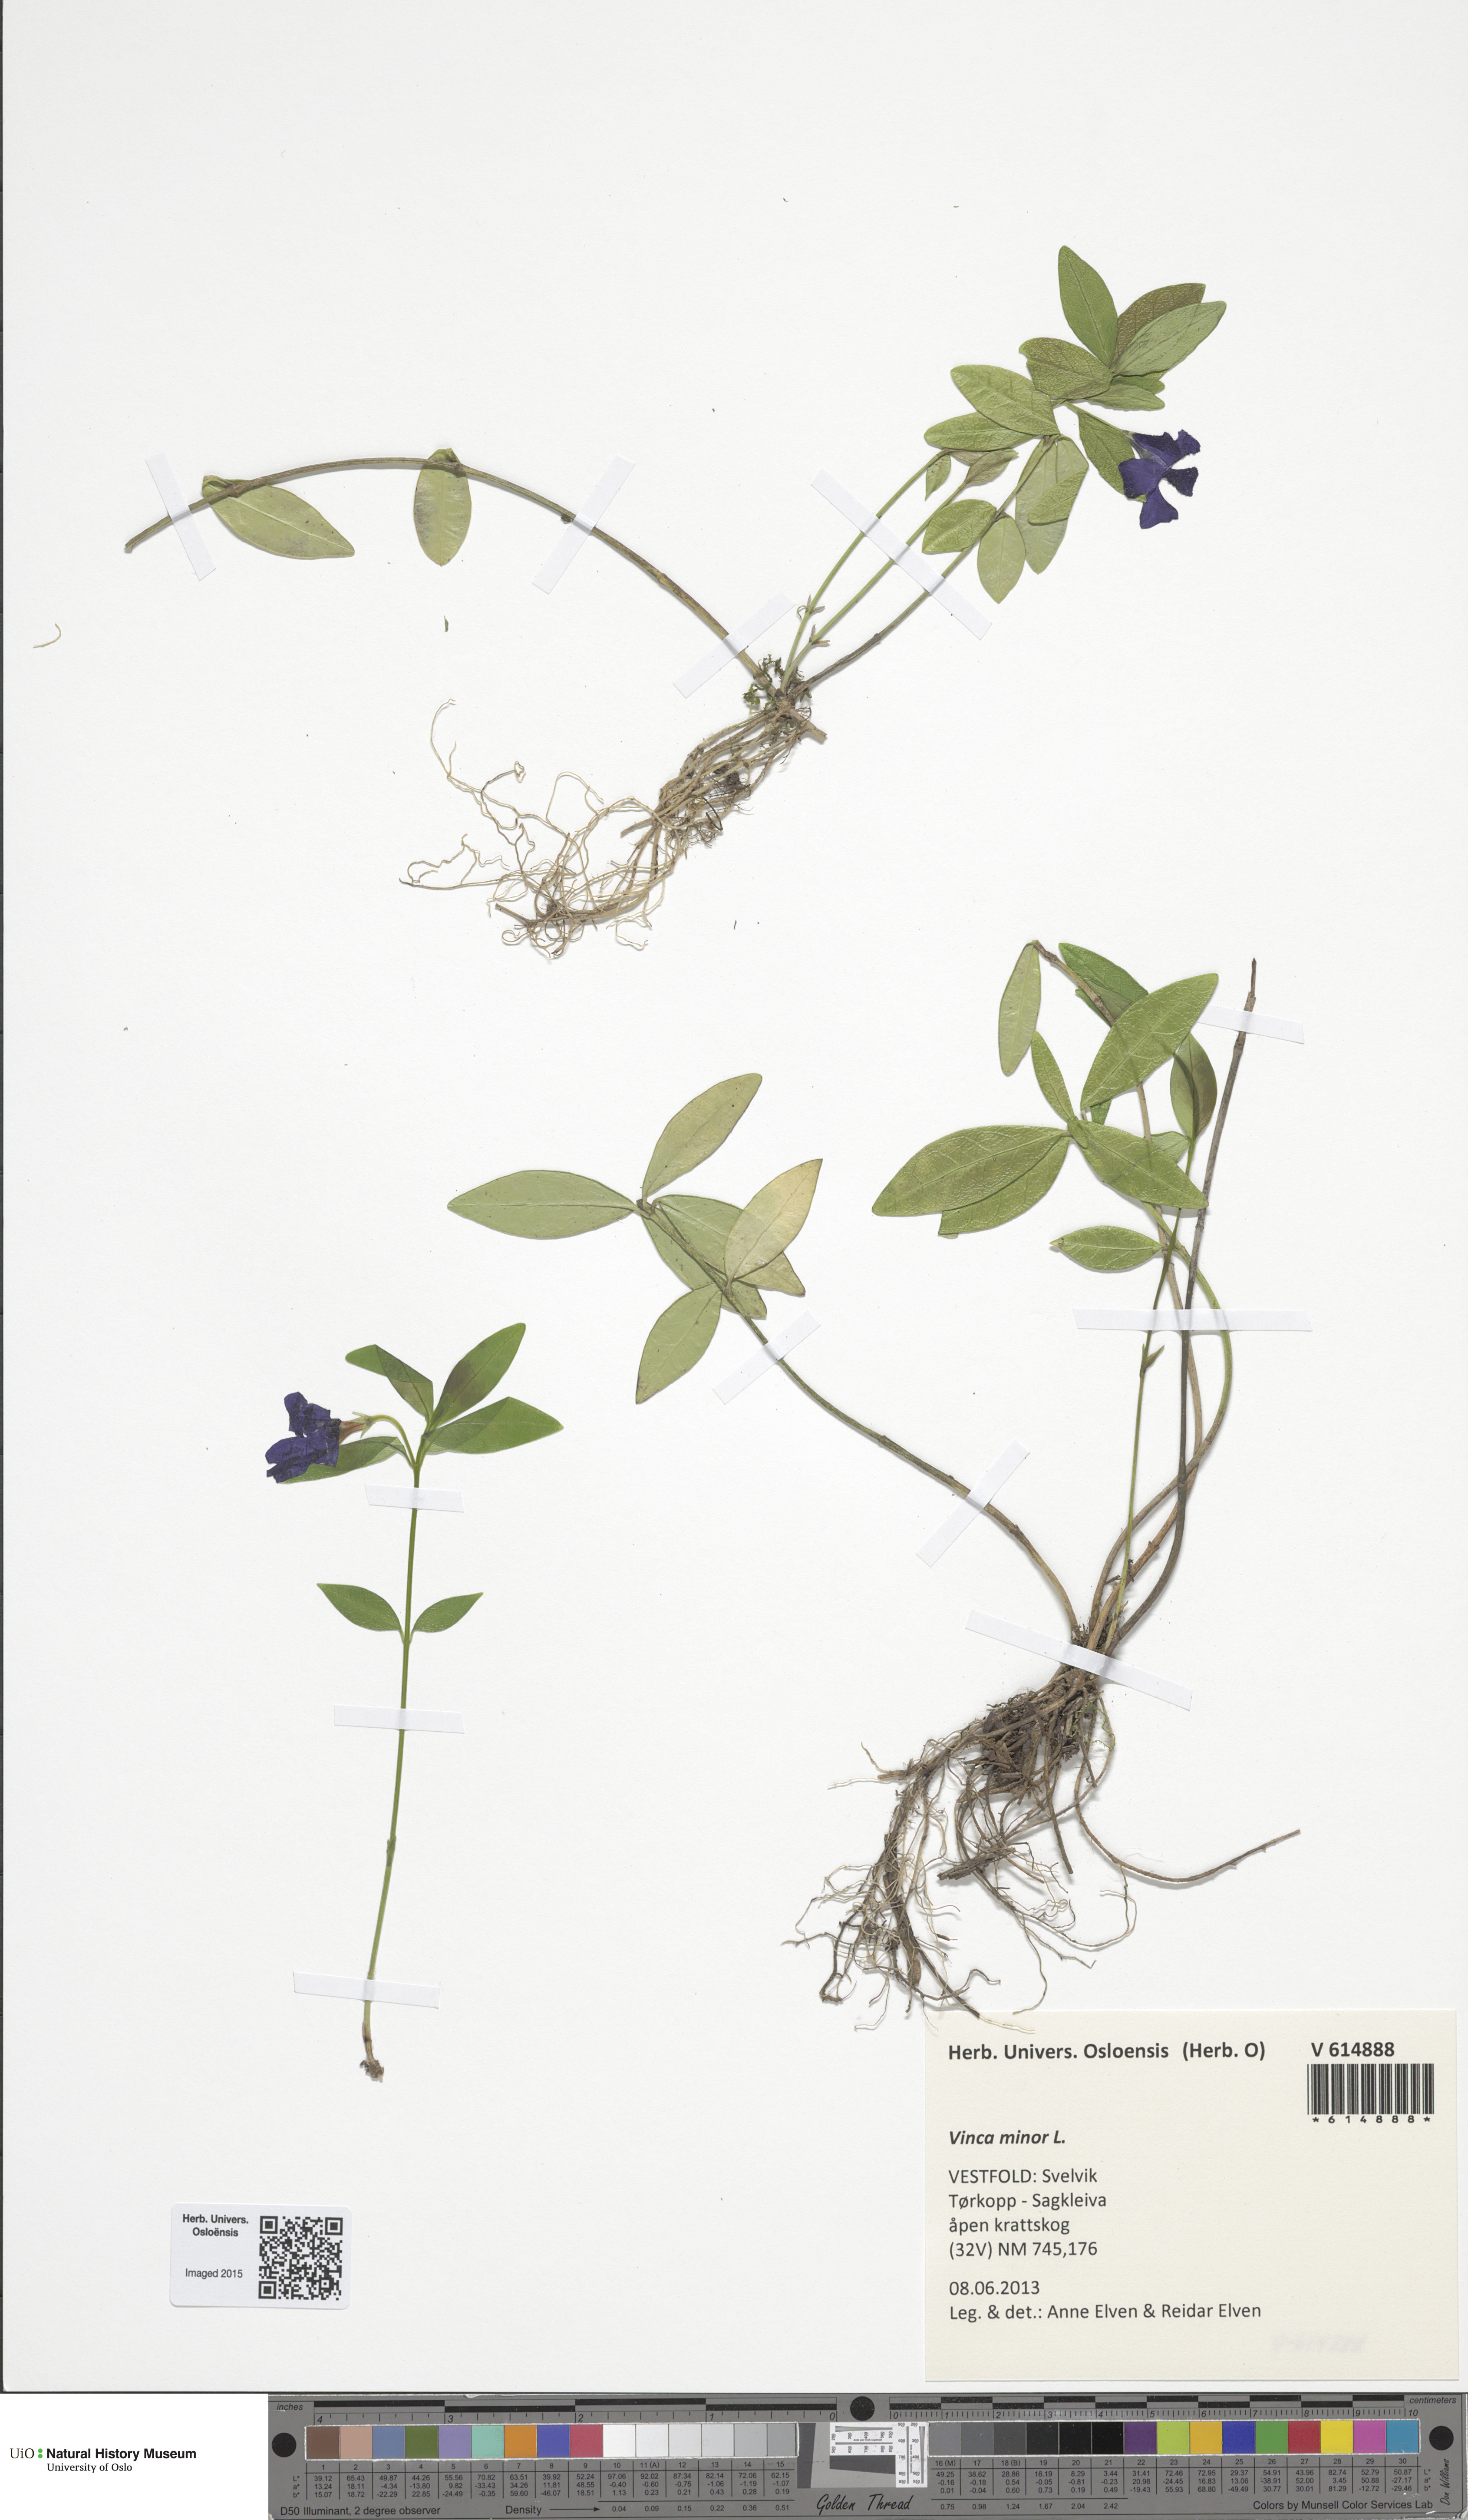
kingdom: Plantae
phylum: Tracheophyta
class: Magnoliopsida
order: Gentianales
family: Apocynaceae
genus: Vinca
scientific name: Vinca minor
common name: Lesser periwinkle
